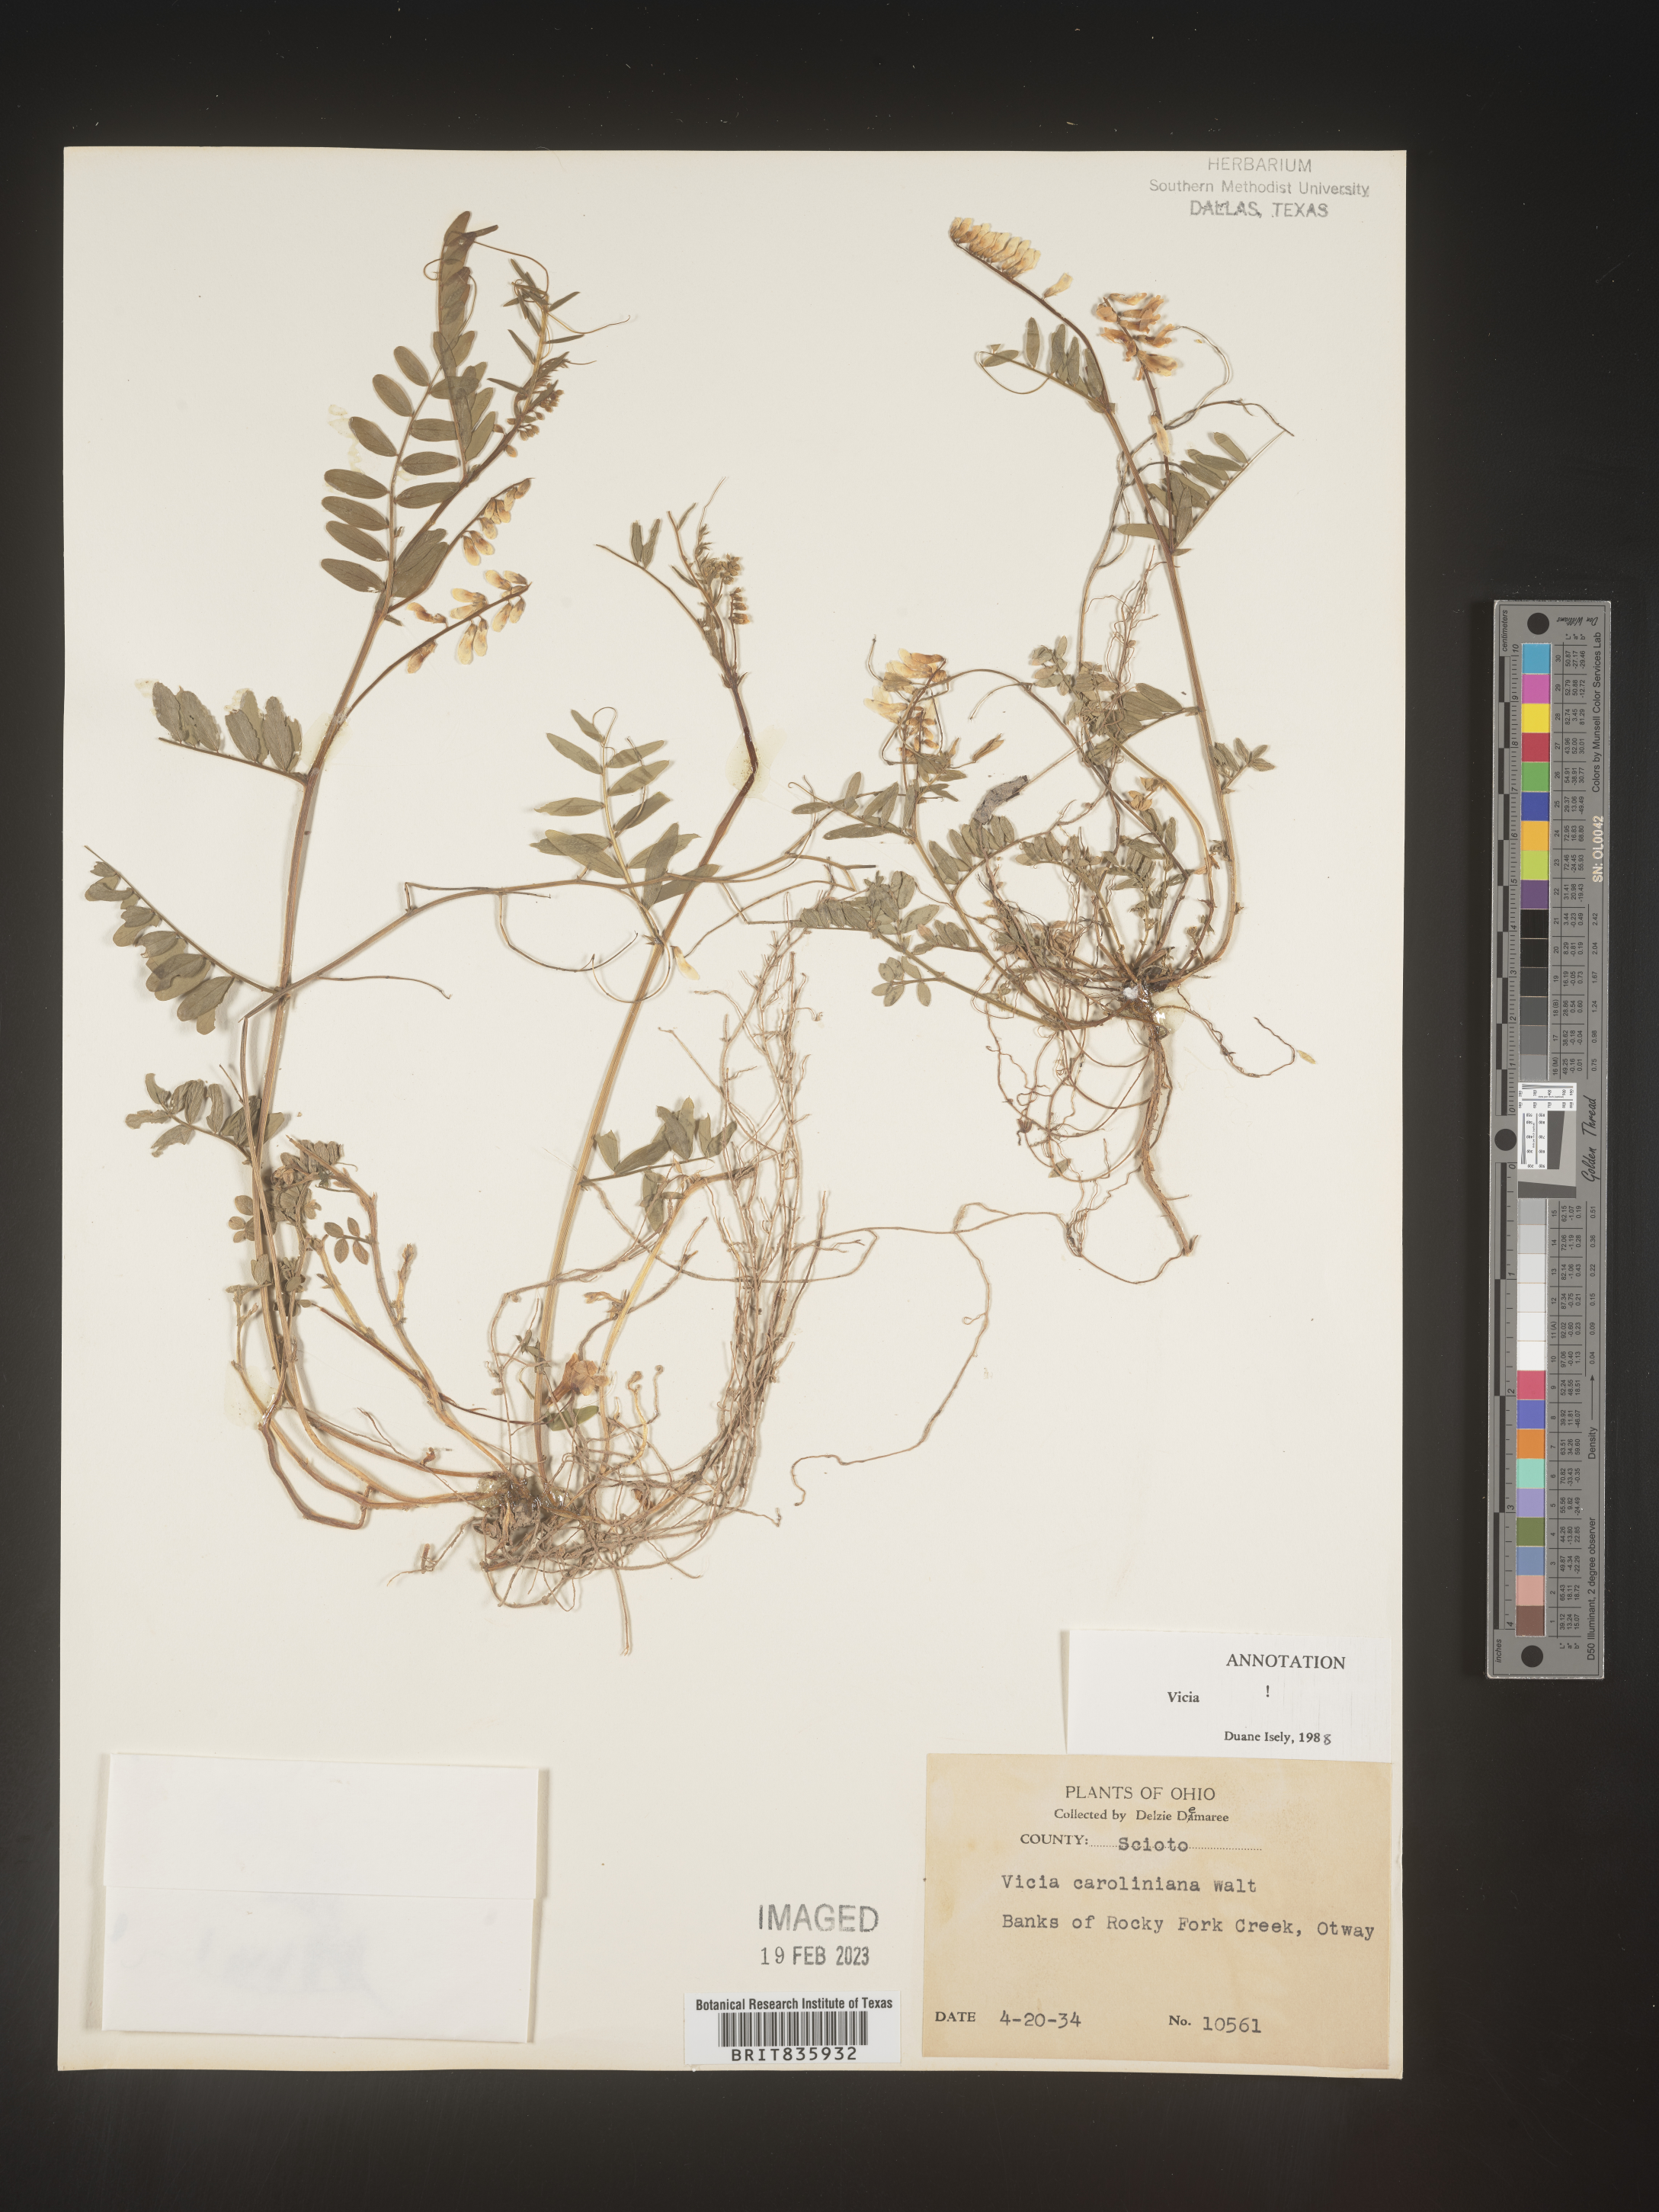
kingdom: Plantae
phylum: Tracheophyta
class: Magnoliopsida
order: Fabales
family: Fabaceae
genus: Vicia
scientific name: Vicia caroliniana
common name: Carolina vetch
